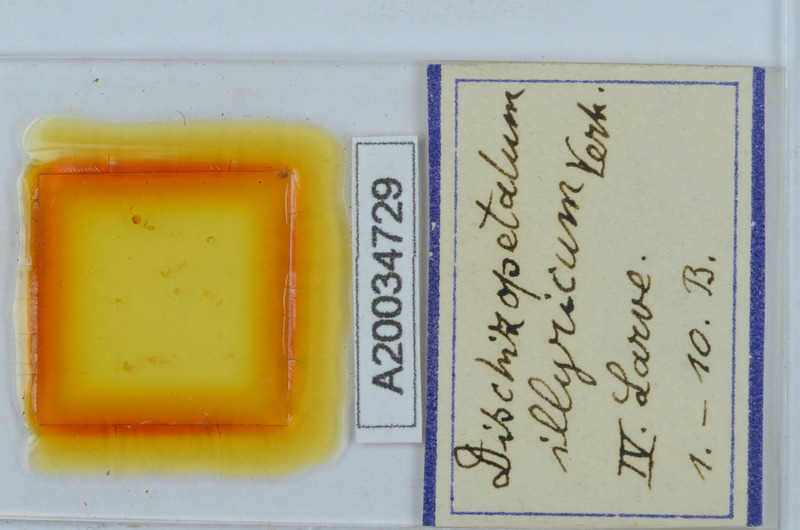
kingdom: Animalia
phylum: Arthropoda
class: Diplopoda
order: Callipodida
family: Schizopetalidae
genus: Dischizopetalum
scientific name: Dischizopetalum illyricum
